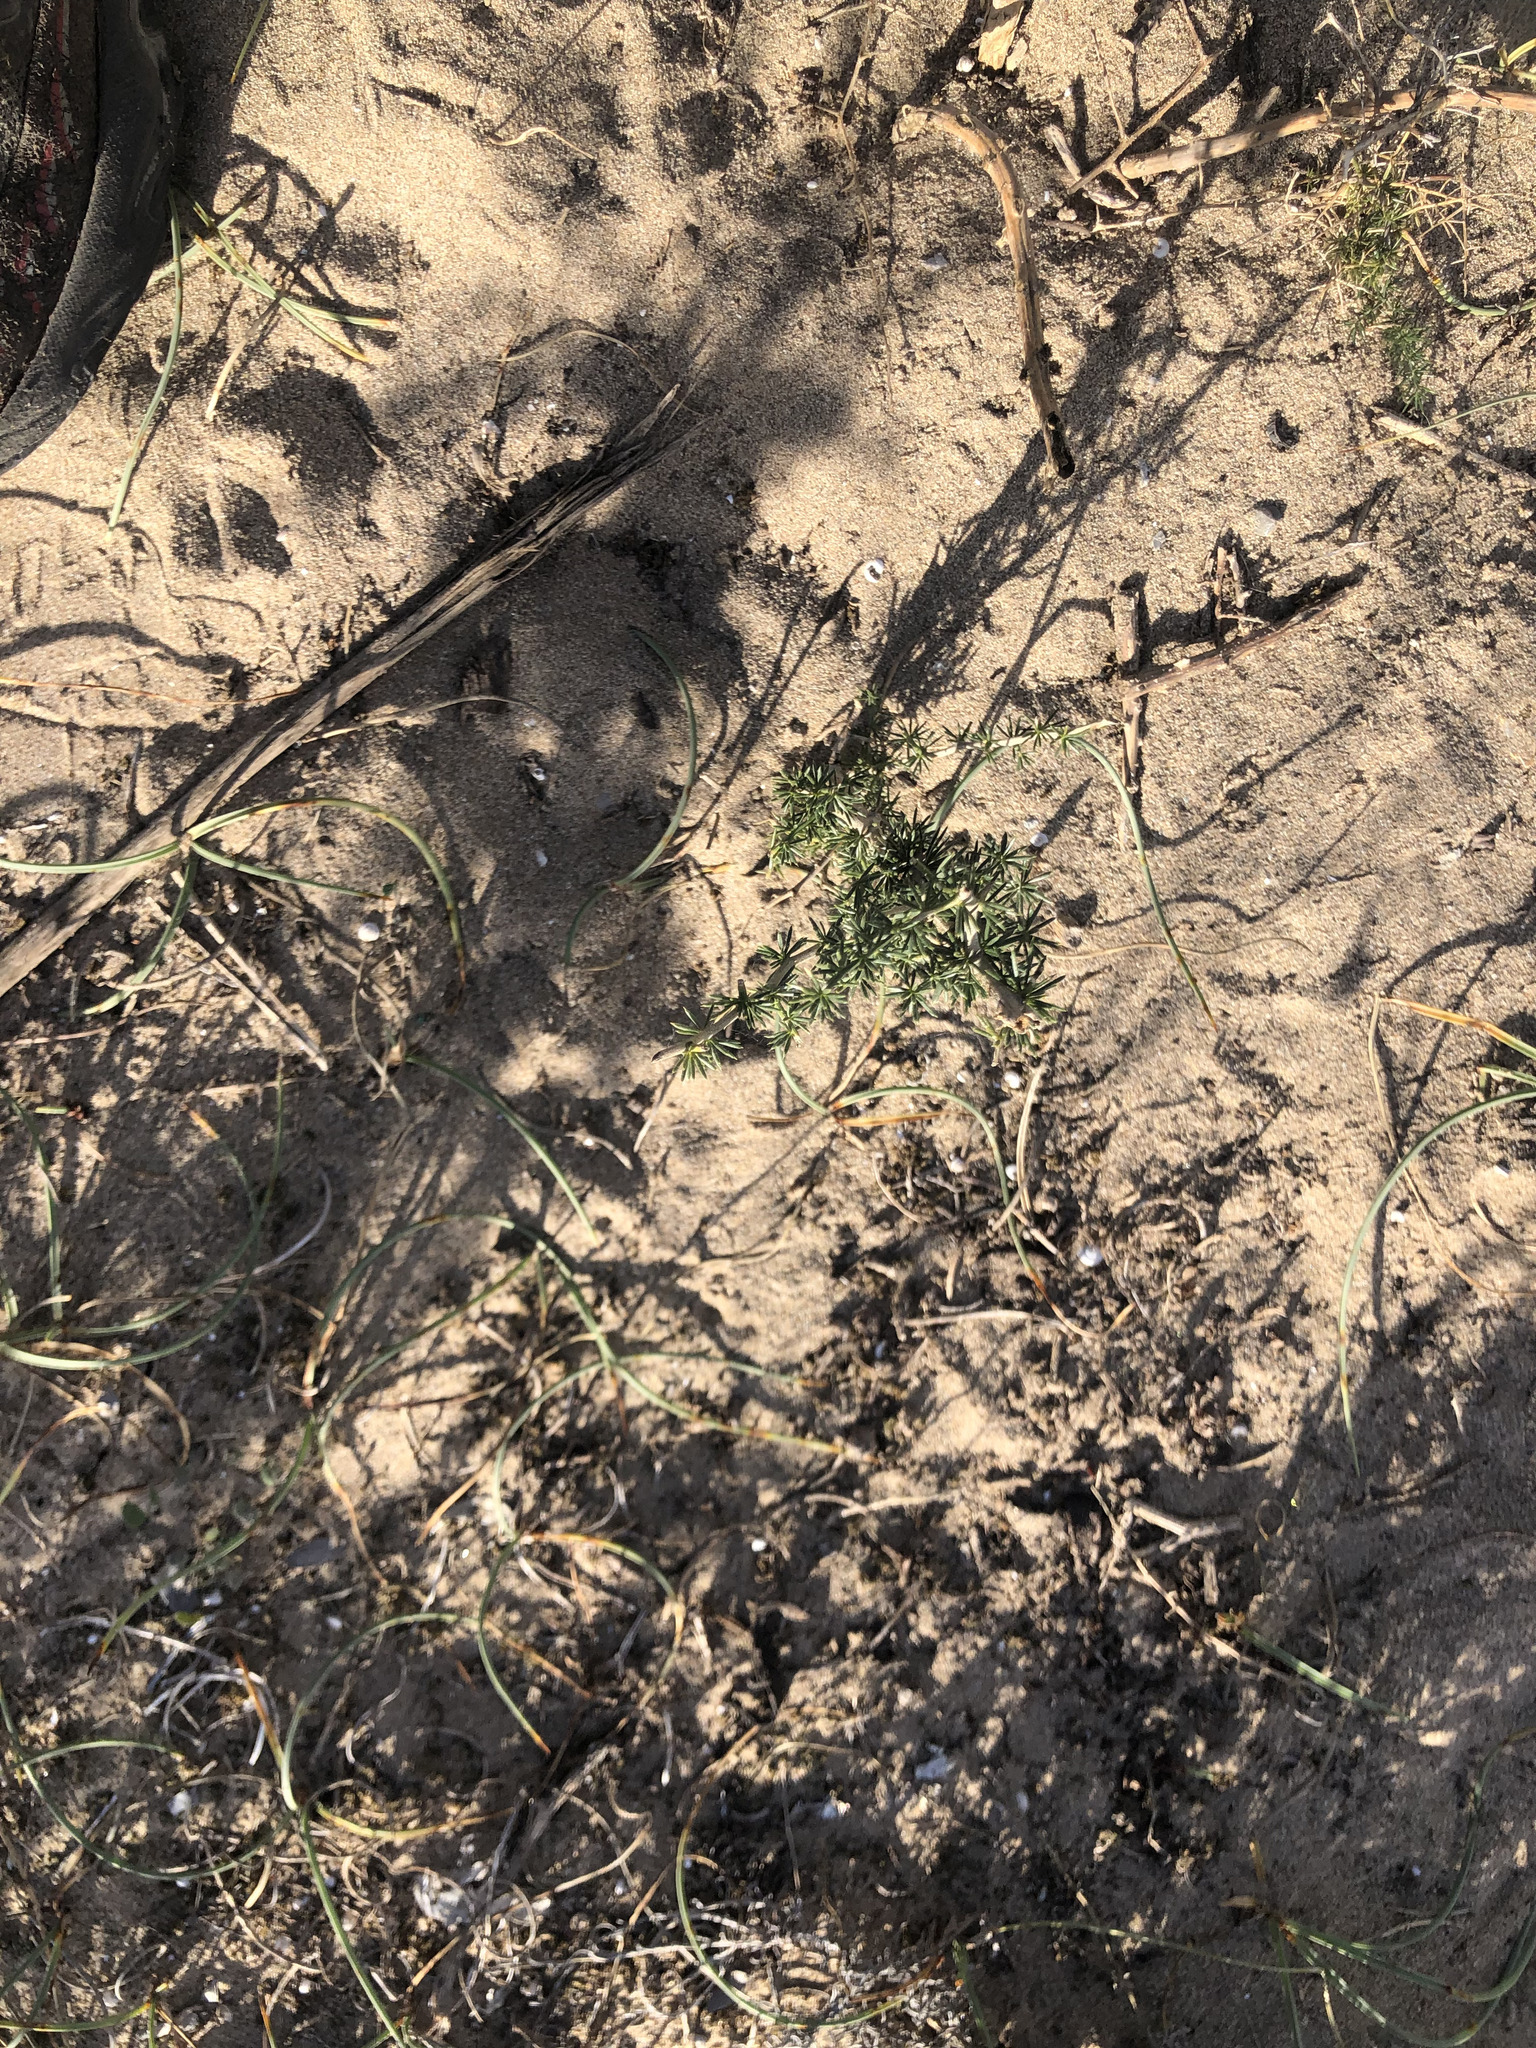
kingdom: Plantae
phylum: Tracheophyta
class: Liliopsida
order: Asparagales
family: Asparagaceae
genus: Asparagus
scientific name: Asparagus acutifolius
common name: Wild asparagus
